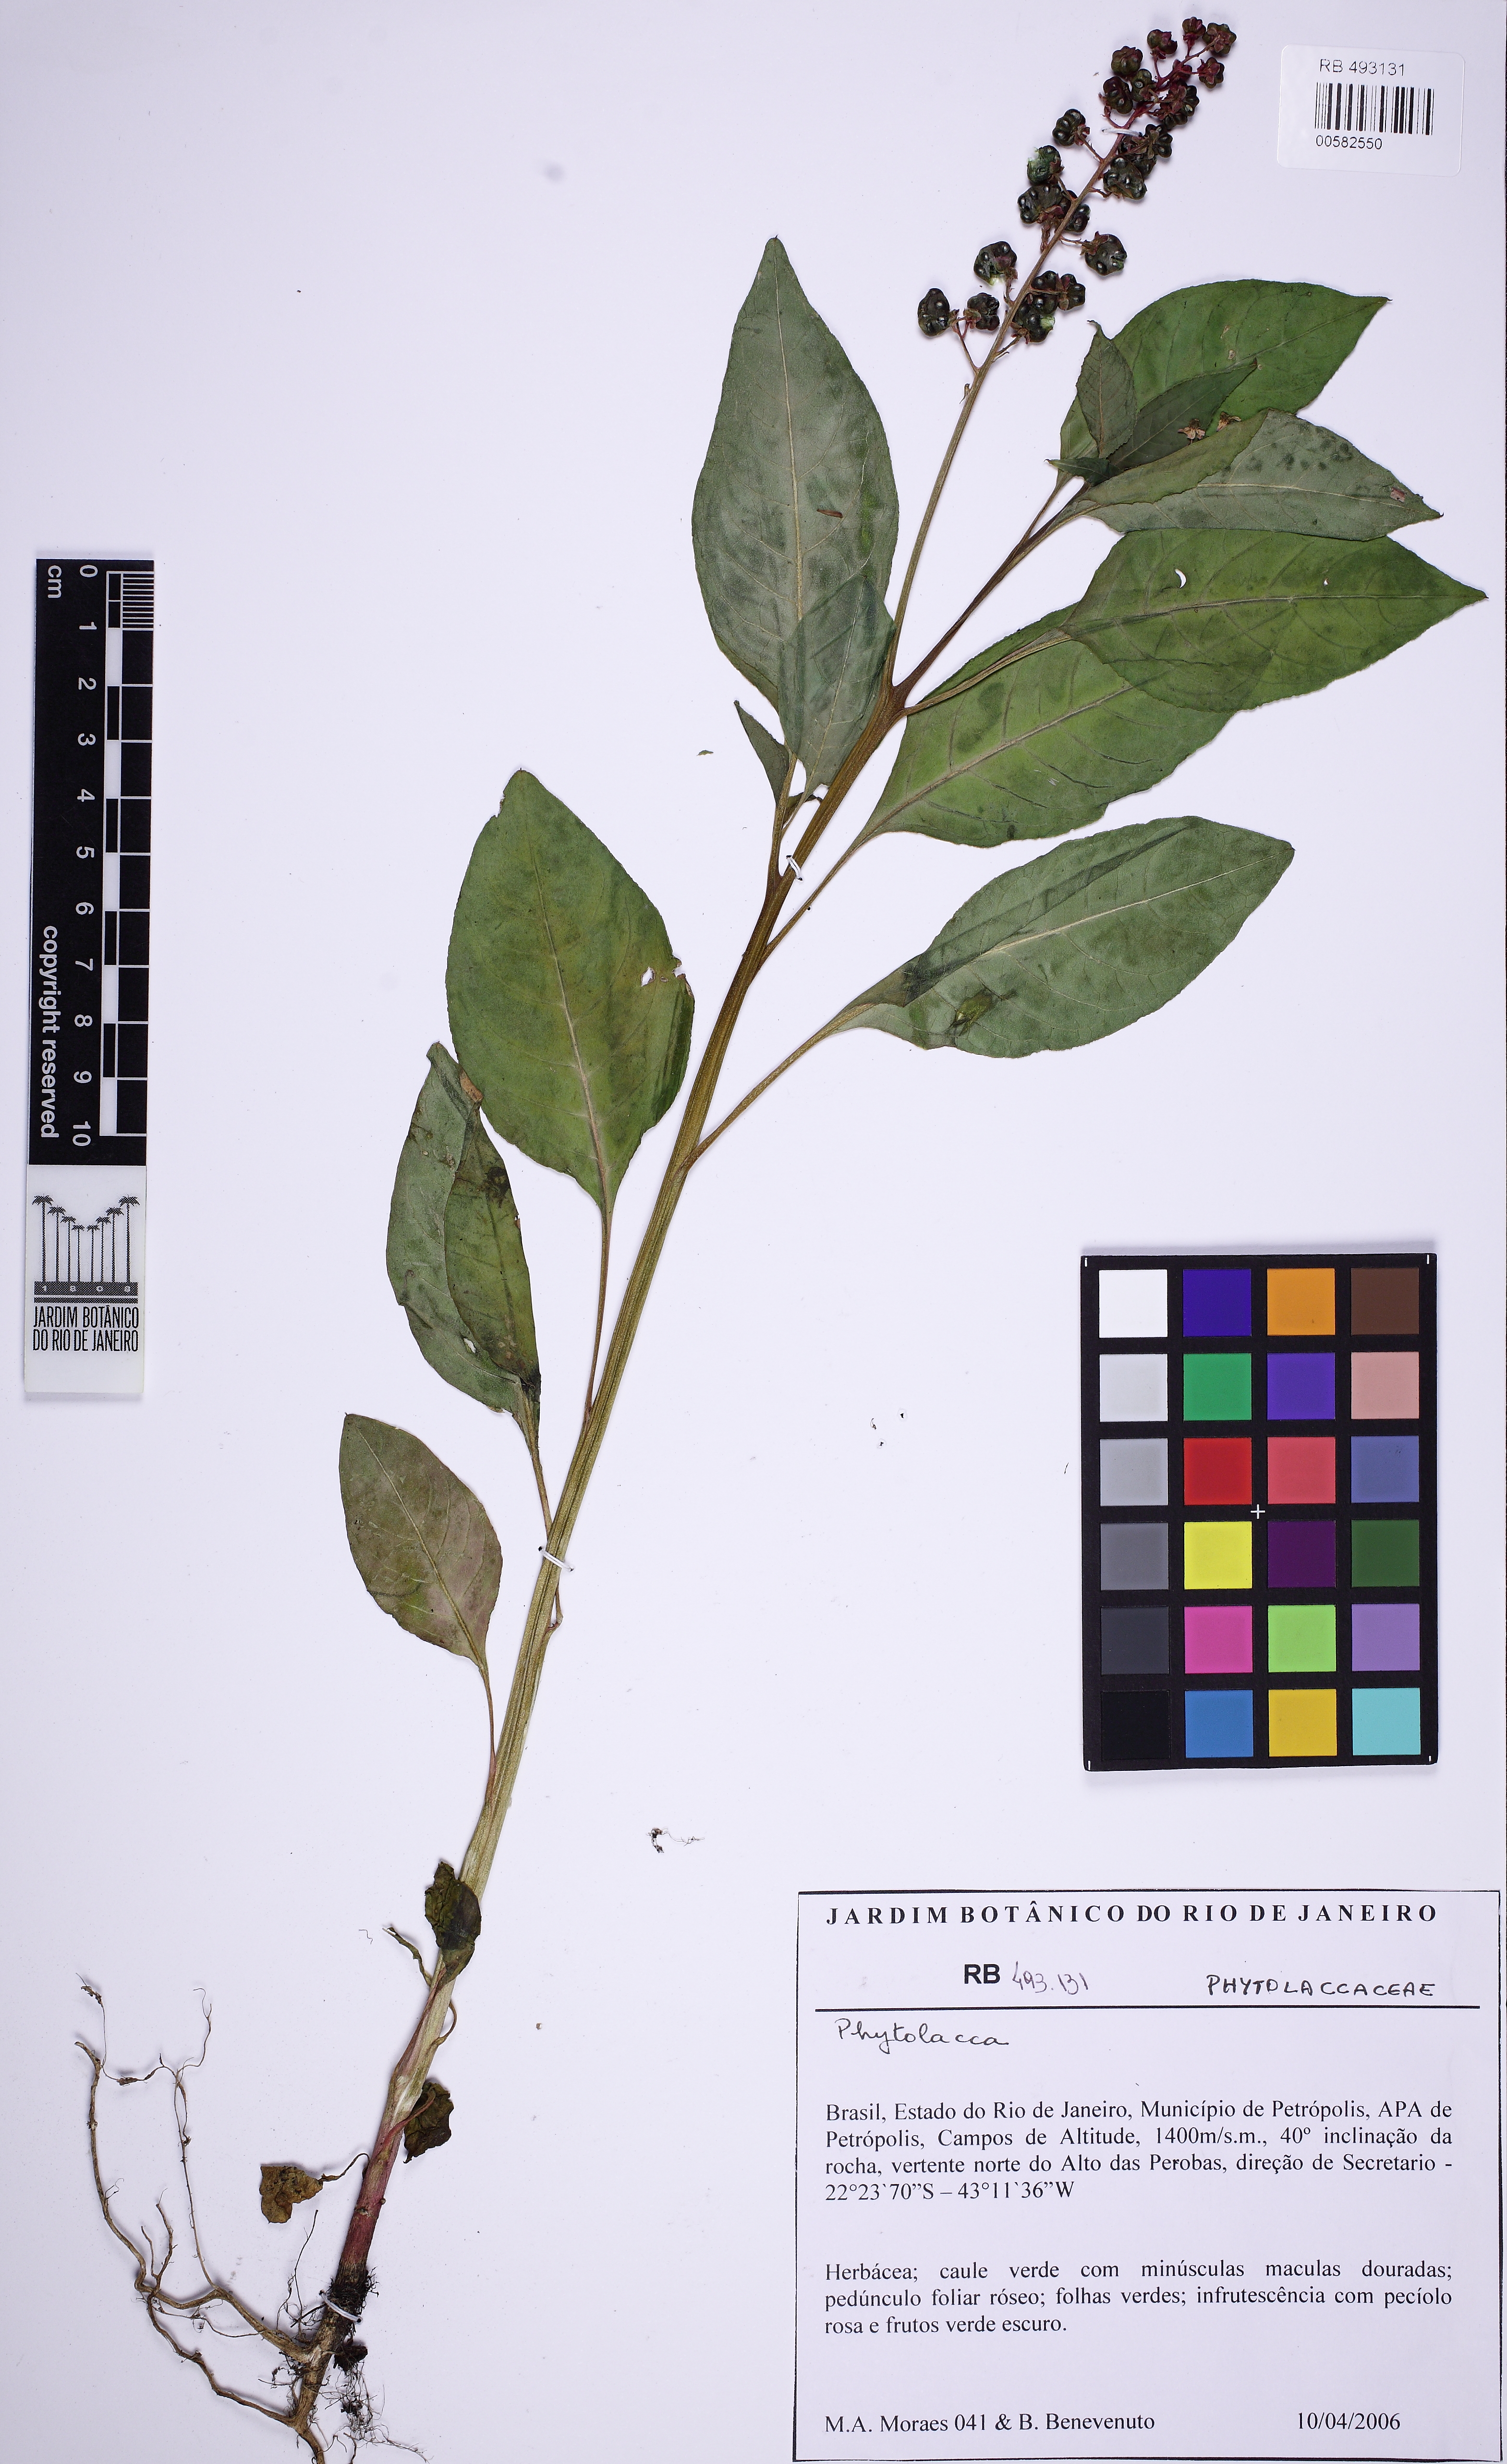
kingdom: Plantae
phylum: Tracheophyta
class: Magnoliopsida
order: Caryophyllales
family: Phytolaccaceae
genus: Phytolacca
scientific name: Phytolacca dioica
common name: Pokeweed
